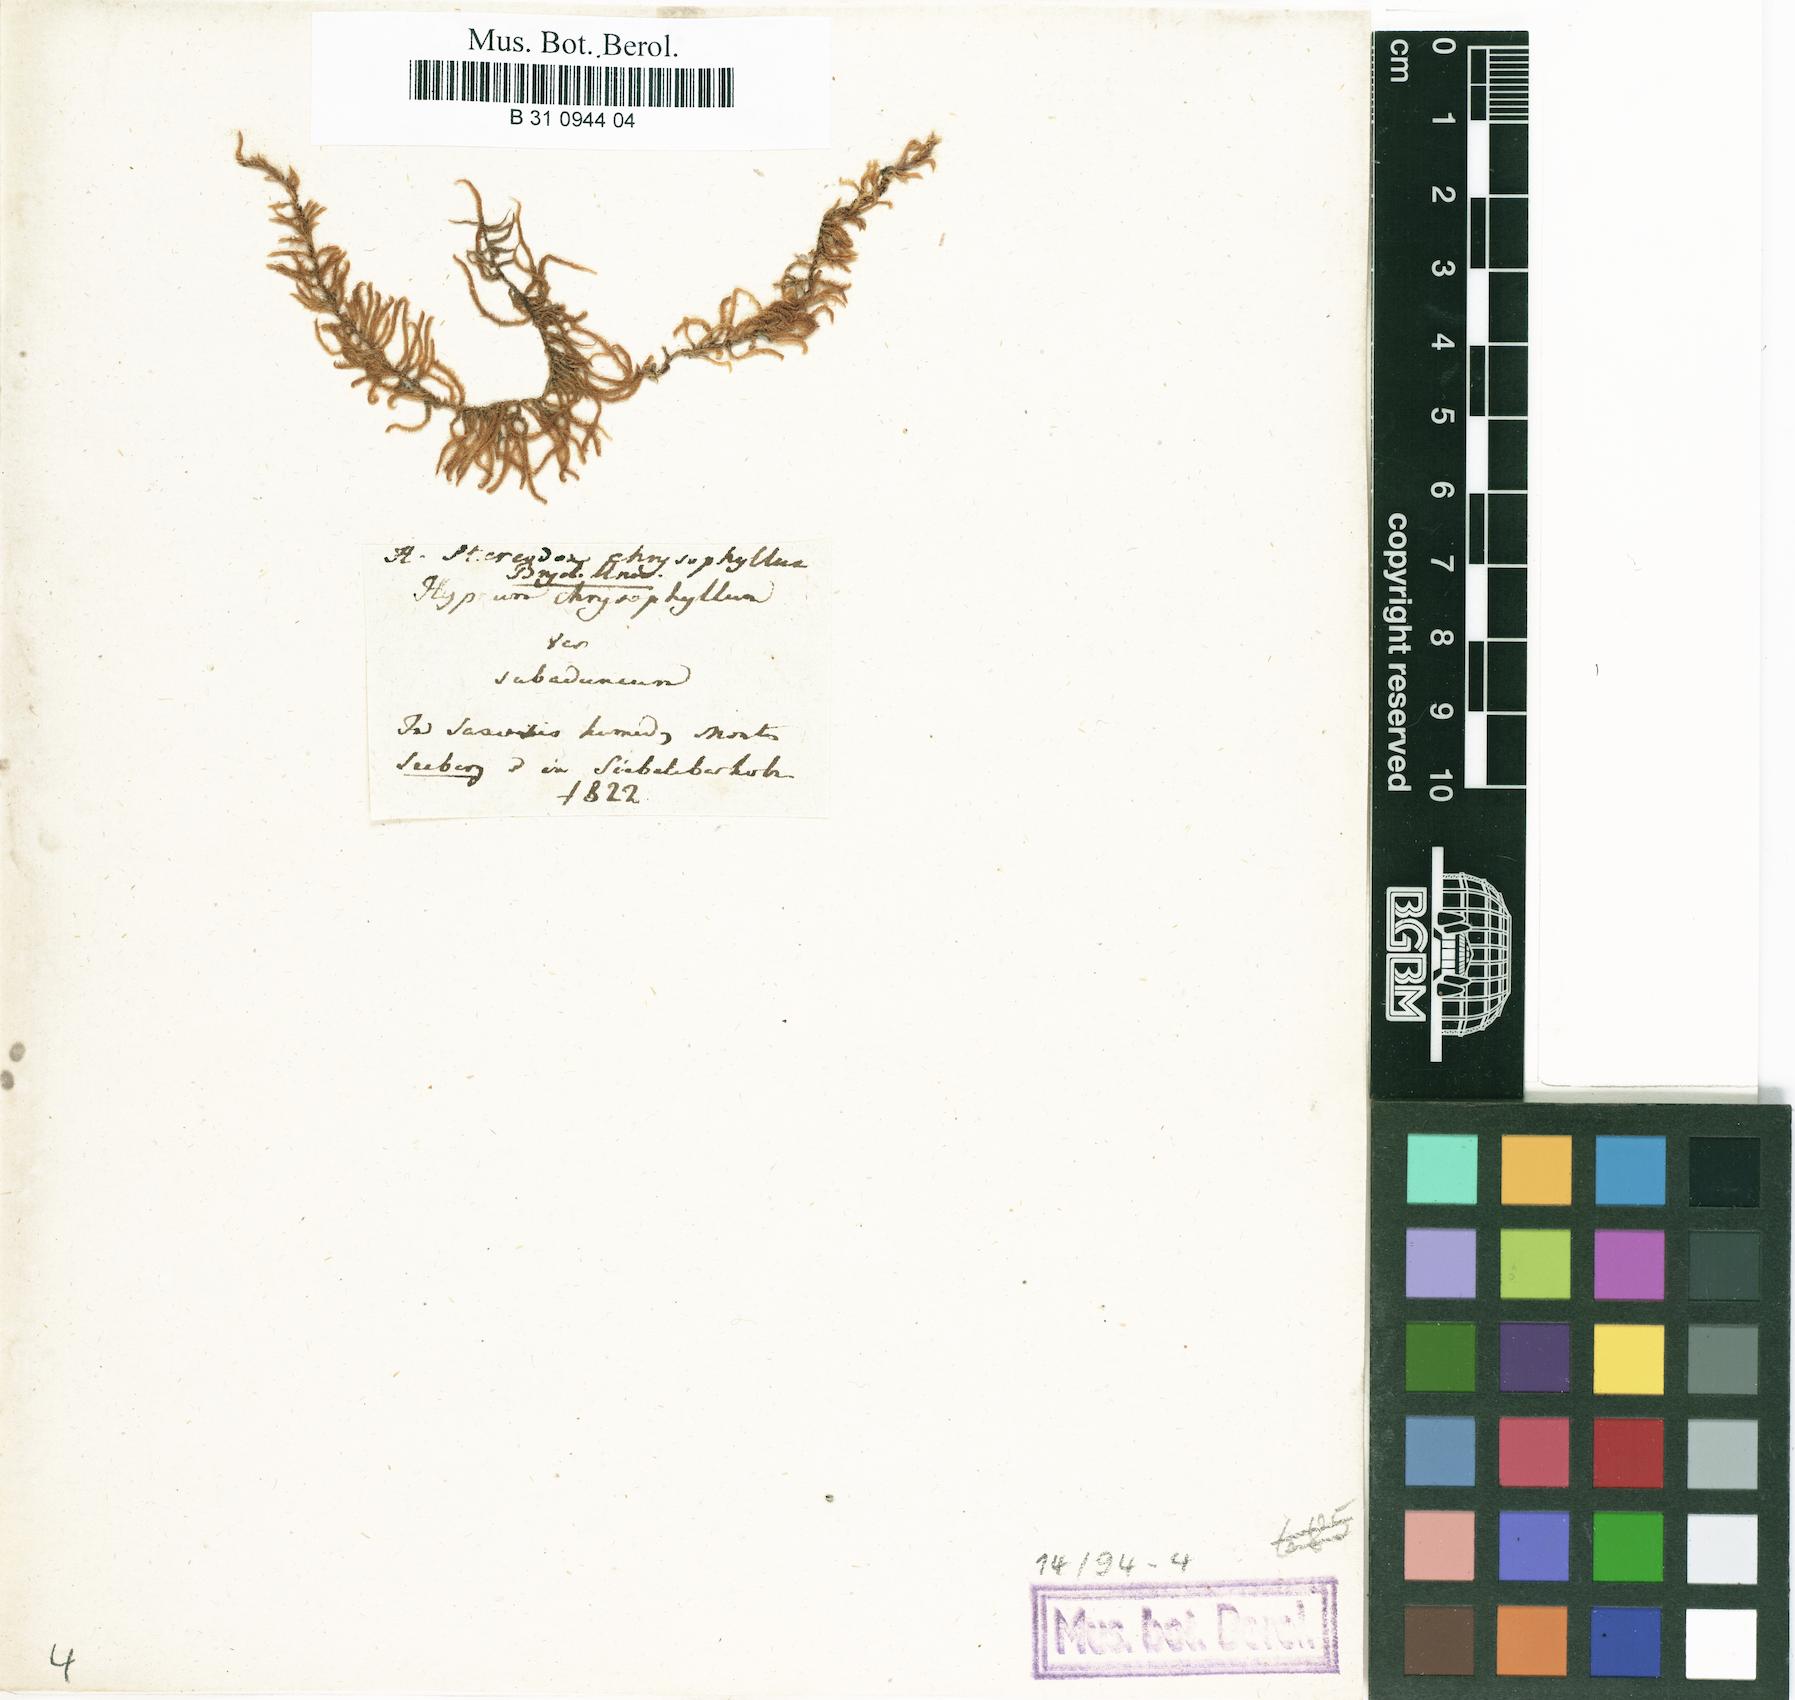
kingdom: Plantae
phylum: Bryophyta
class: Bryopsida
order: Hypnales
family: Amblystegiaceae
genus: Campylium
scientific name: Campylium chrysophyllum
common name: Goldenleaf campylium moss
